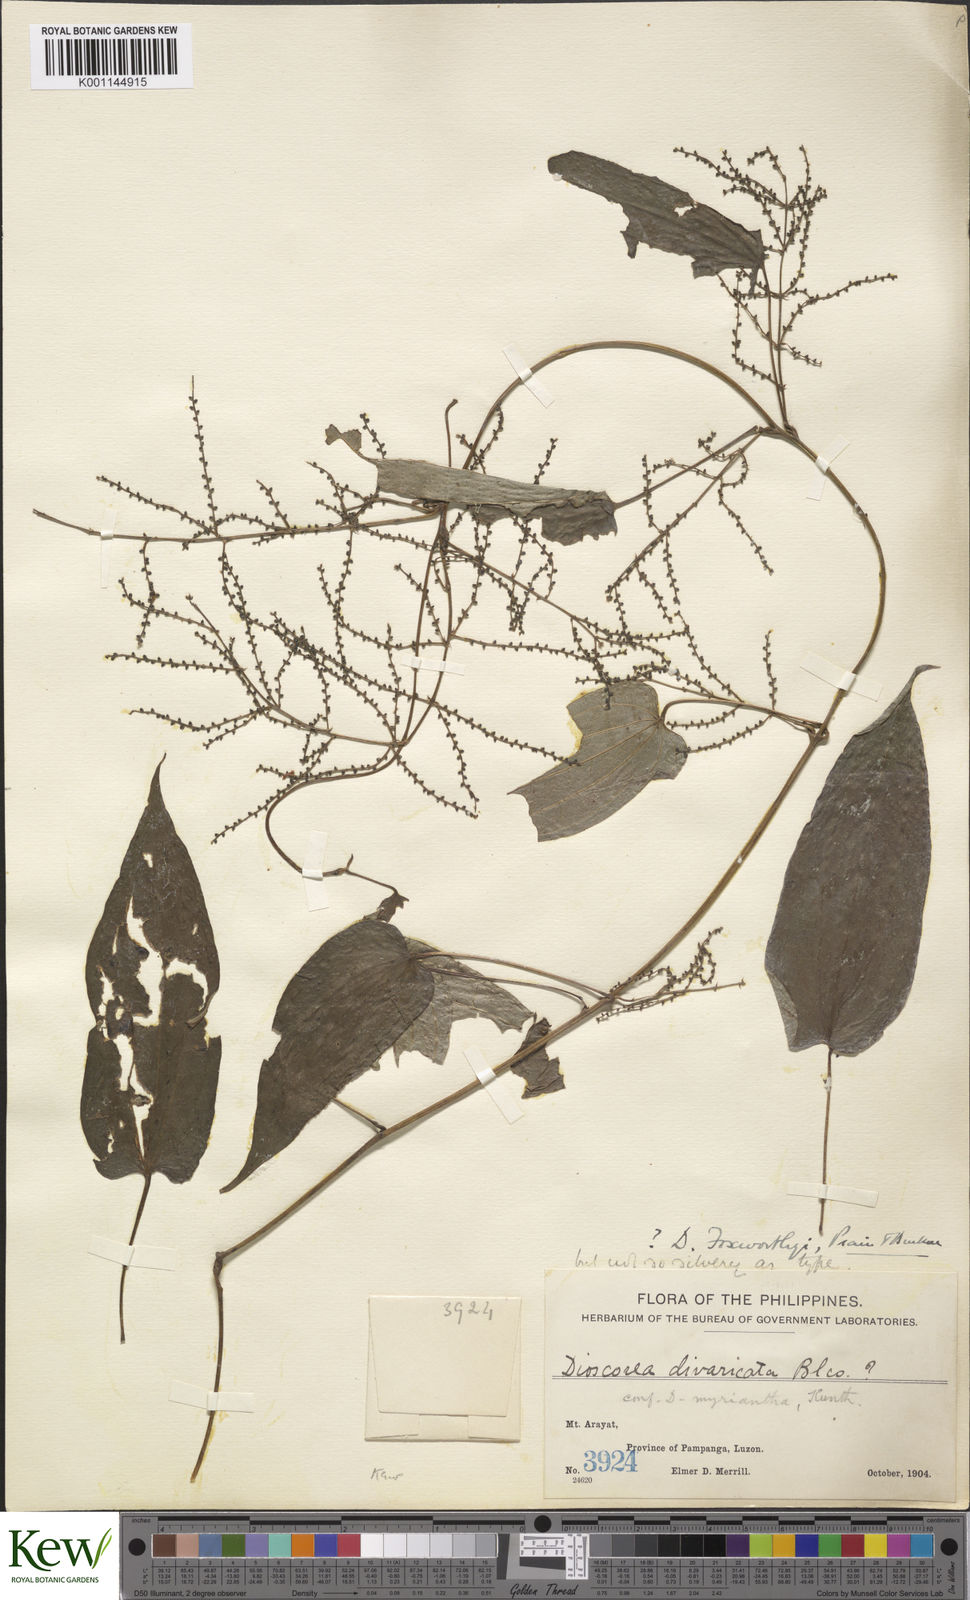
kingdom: Plantae
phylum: Tracheophyta
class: Liliopsida
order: Dioscoreales
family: Dioscoreaceae
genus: Dioscorea
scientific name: Dioscorea divaricata
